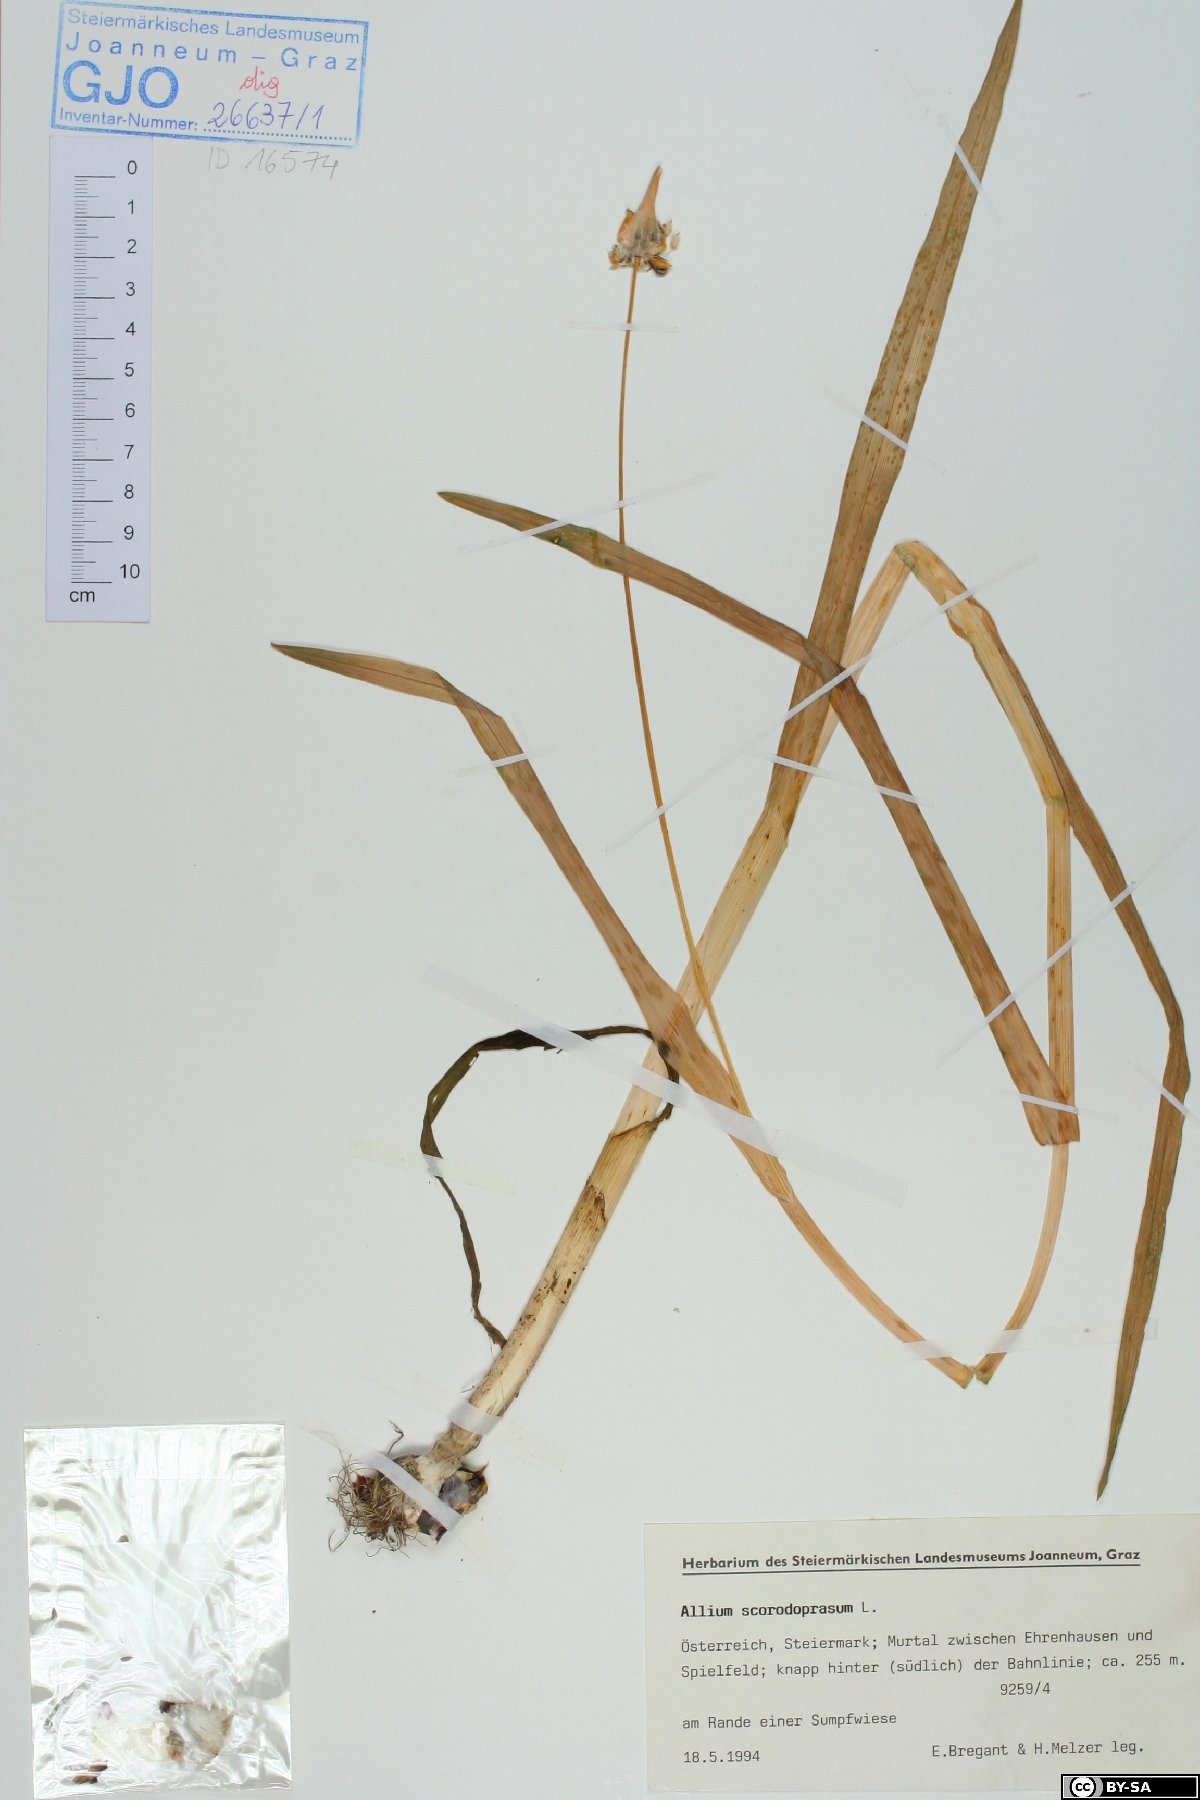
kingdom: Plantae
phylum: Tracheophyta
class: Liliopsida
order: Asparagales
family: Amaryllidaceae
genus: Allium
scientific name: Allium scorodoprasum
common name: Sand leek
